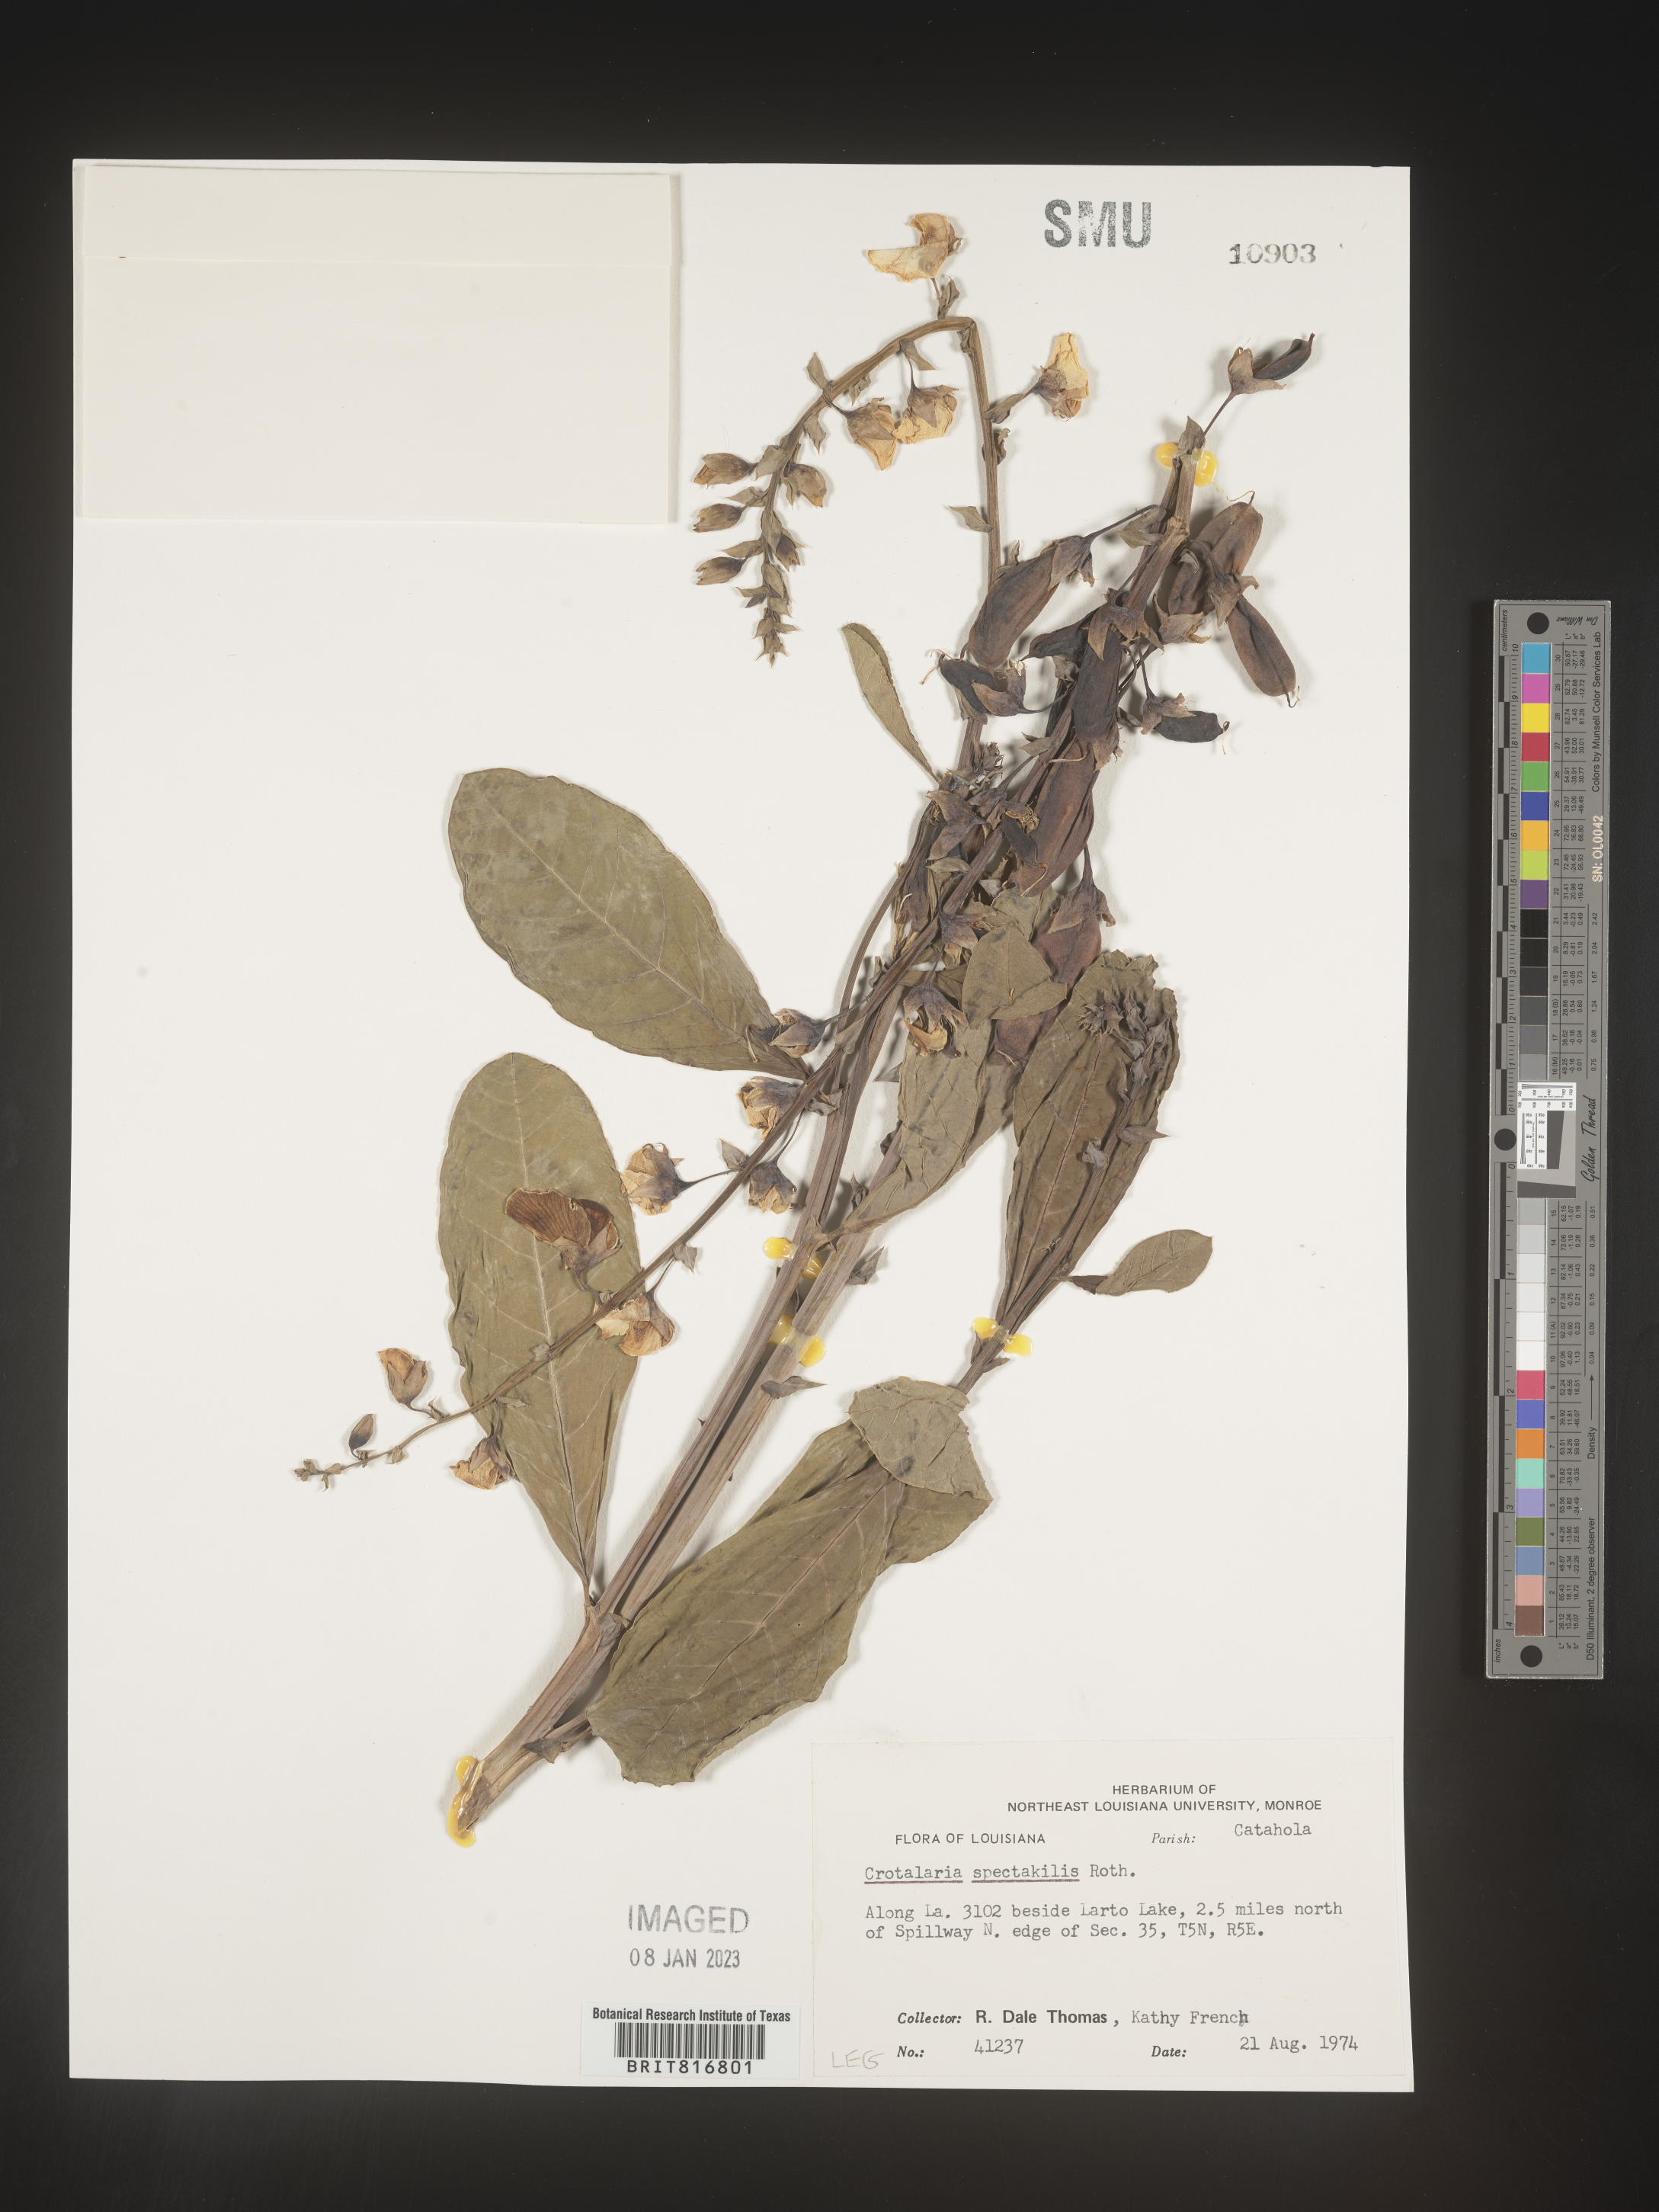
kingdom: Plantae
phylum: Tracheophyta
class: Magnoliopsida
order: Fabales
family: Fabaceae
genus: Crotalaria
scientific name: Crotalaria spectabilis
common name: Showy rattlebox
